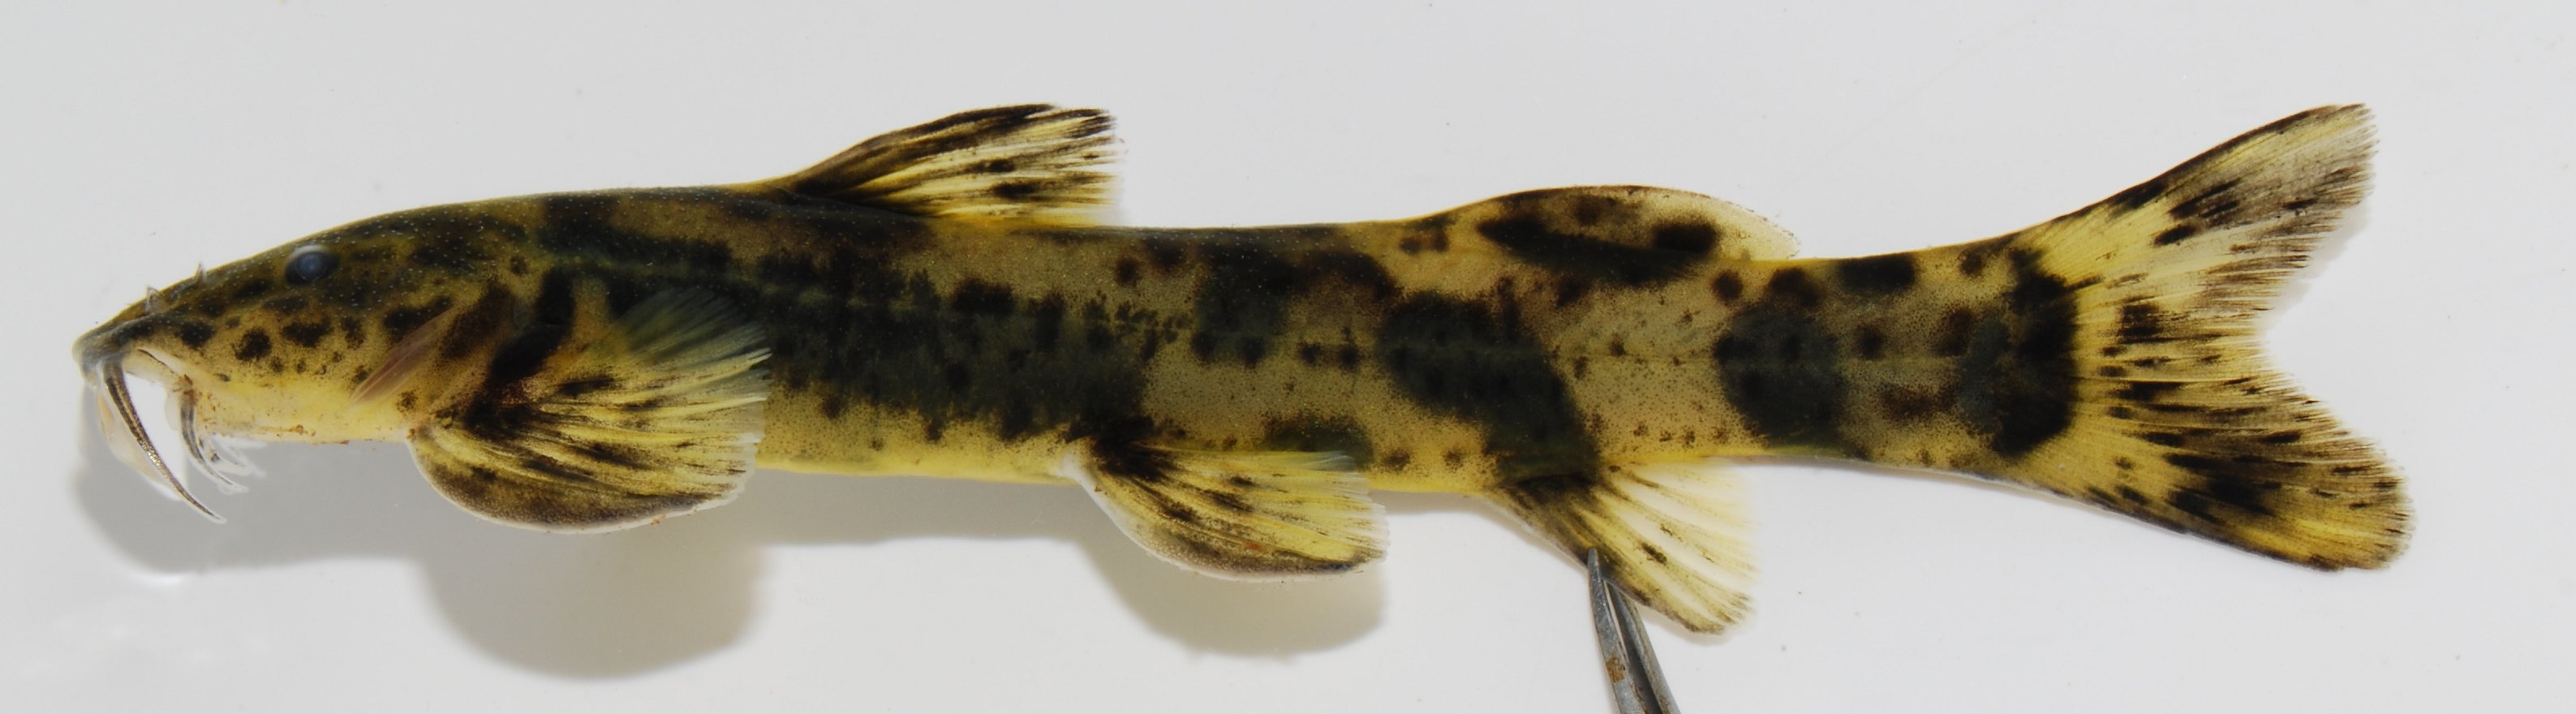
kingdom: Animalia
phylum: Chordata
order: Siluriformes
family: Amphiliidae
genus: Amphilius
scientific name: Amphilius uranoscopus
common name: Stargazer mountain catfish
